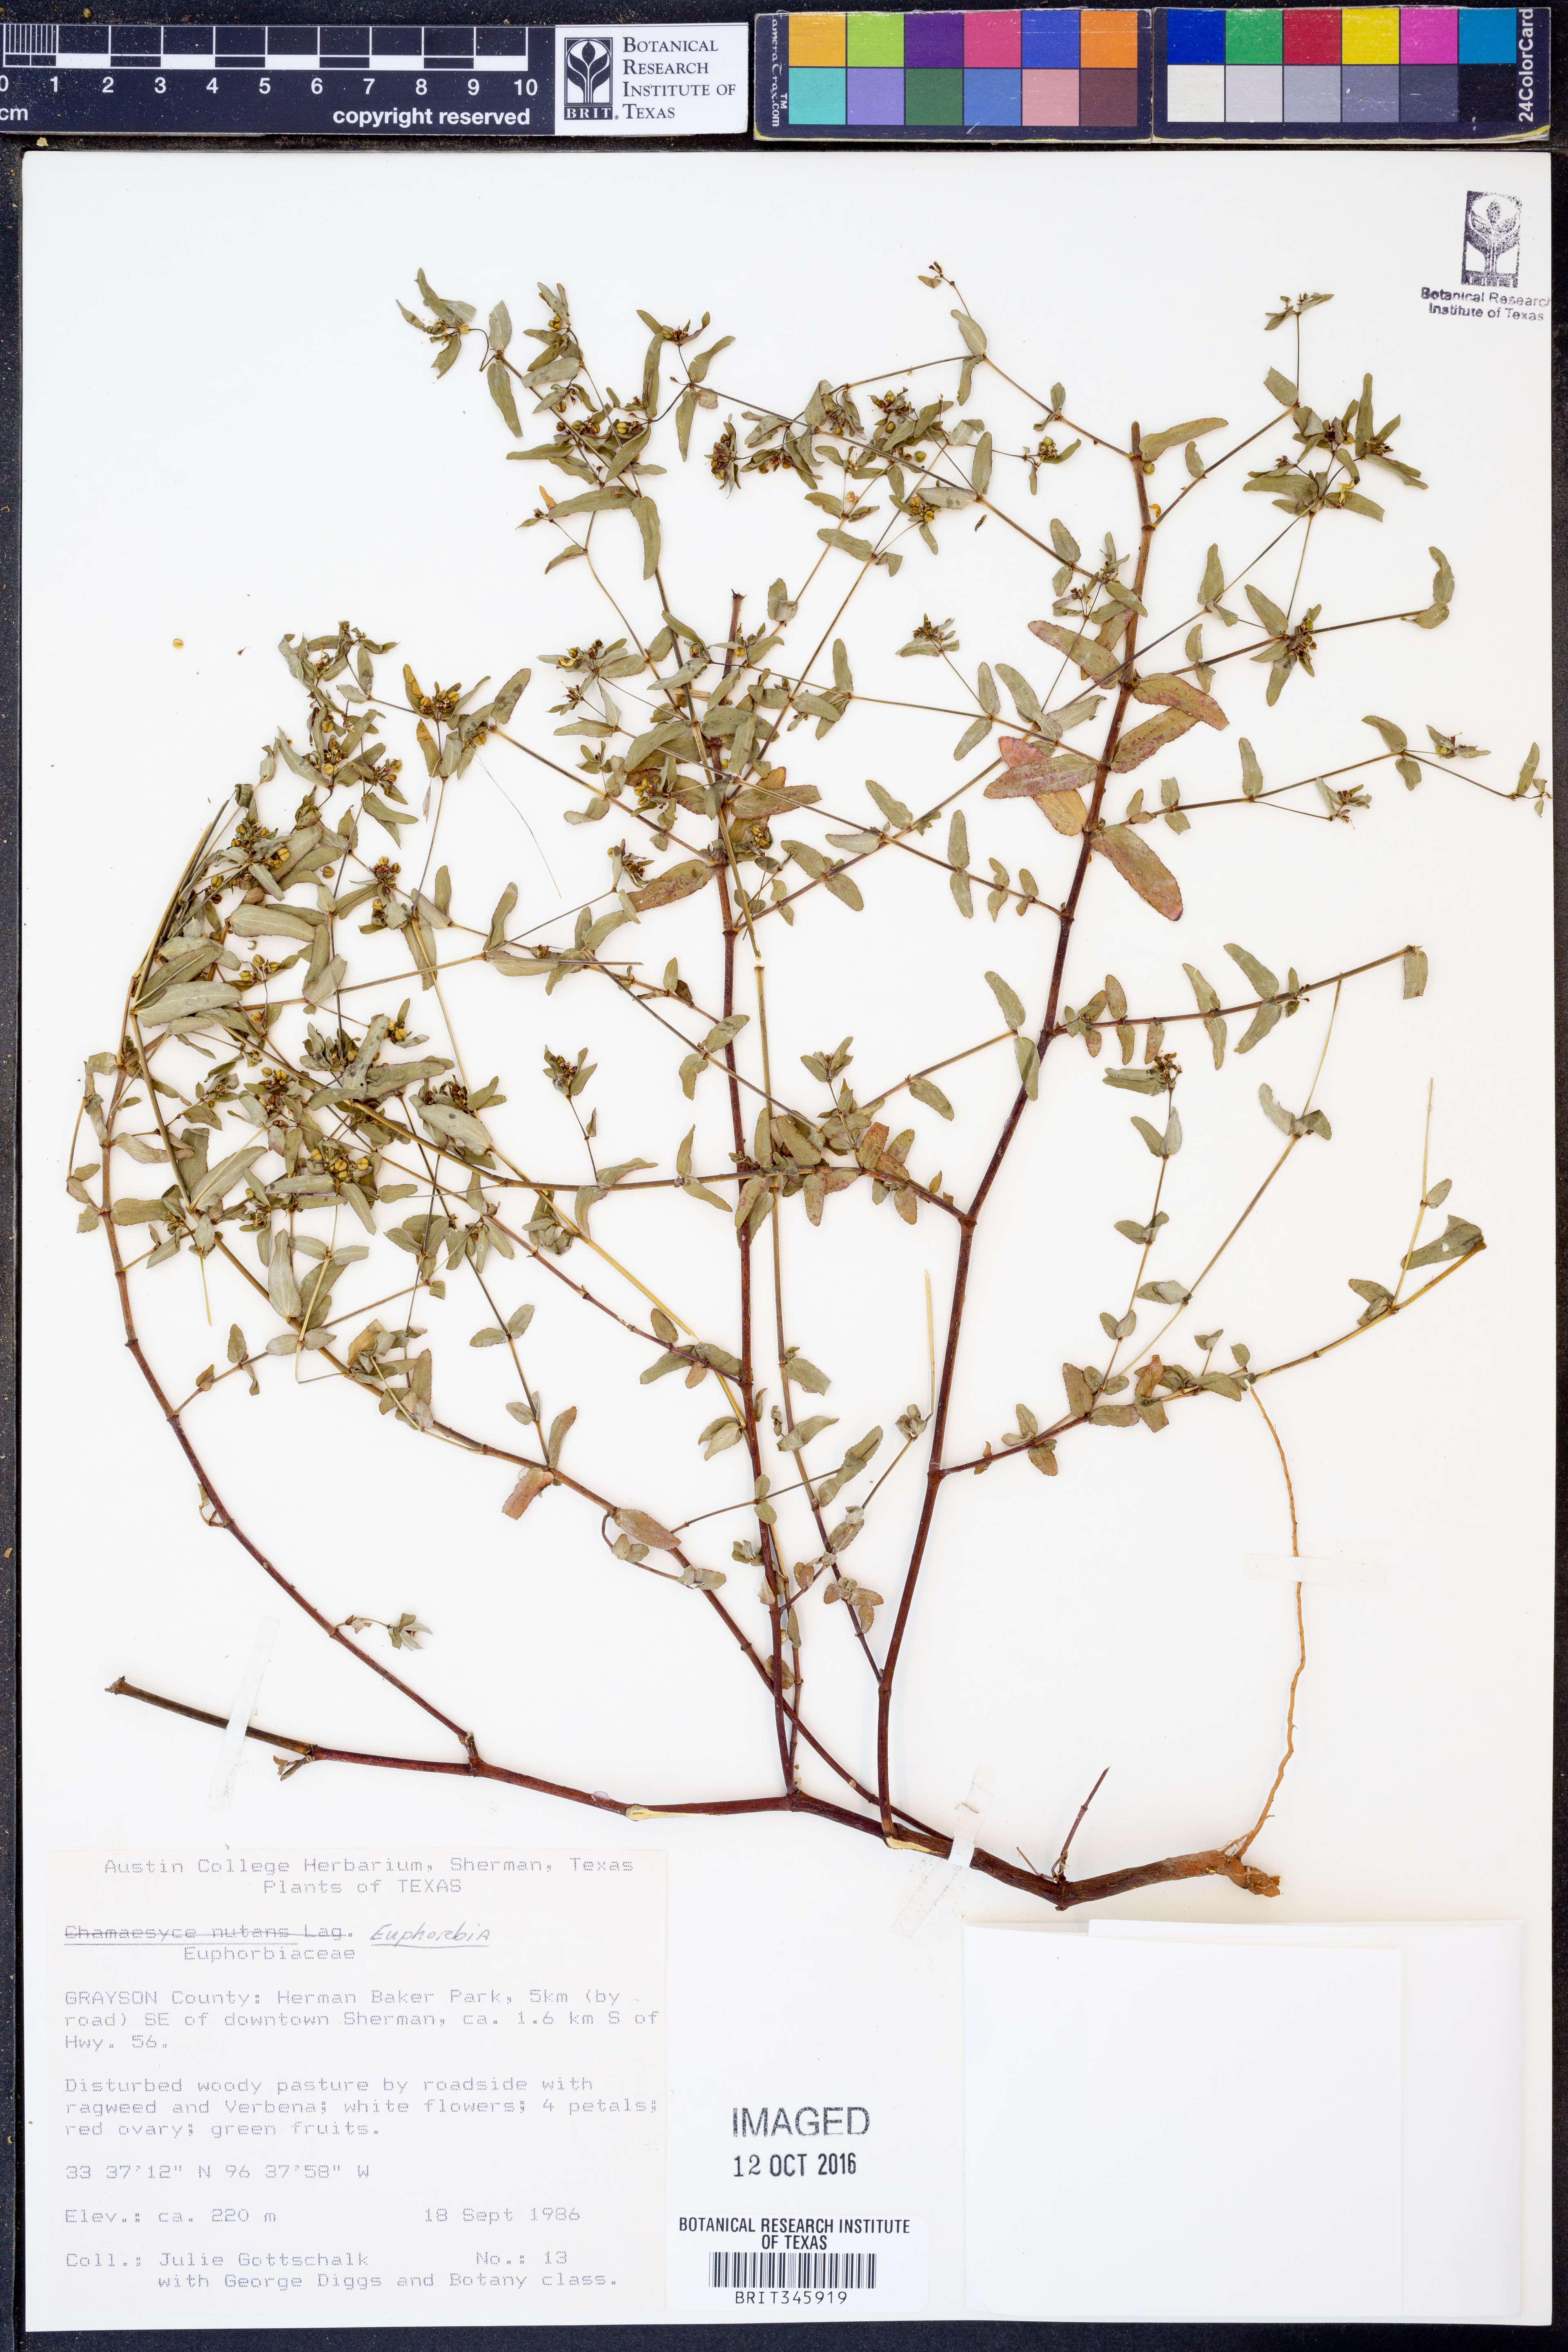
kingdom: Plantae
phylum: Tracheophyta
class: Magnoliopsida
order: Malpighiales
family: Euphorbiaceae
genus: Euphorbia
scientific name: Euphorbia
